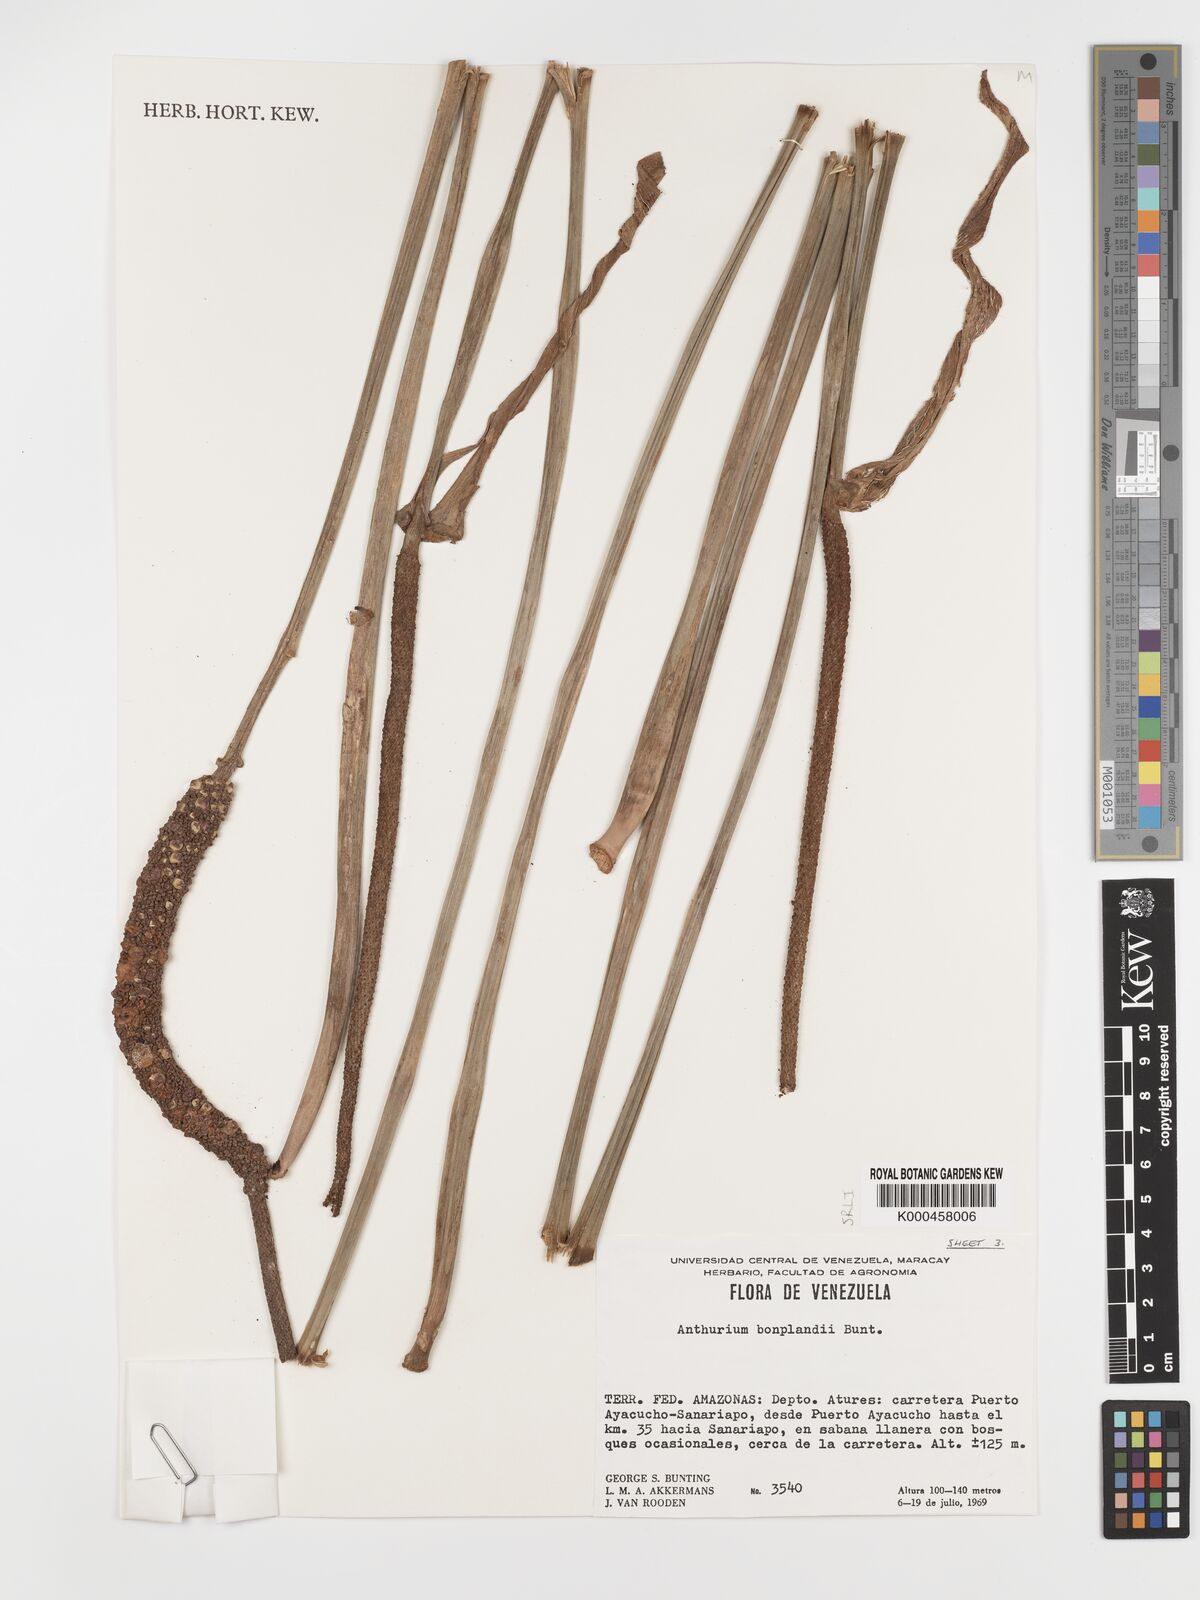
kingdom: Plantae
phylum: Tracheophyta
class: Liliopsida
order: Alismatales
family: Araceae
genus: Anthurium
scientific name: Anthurium bonplandii
